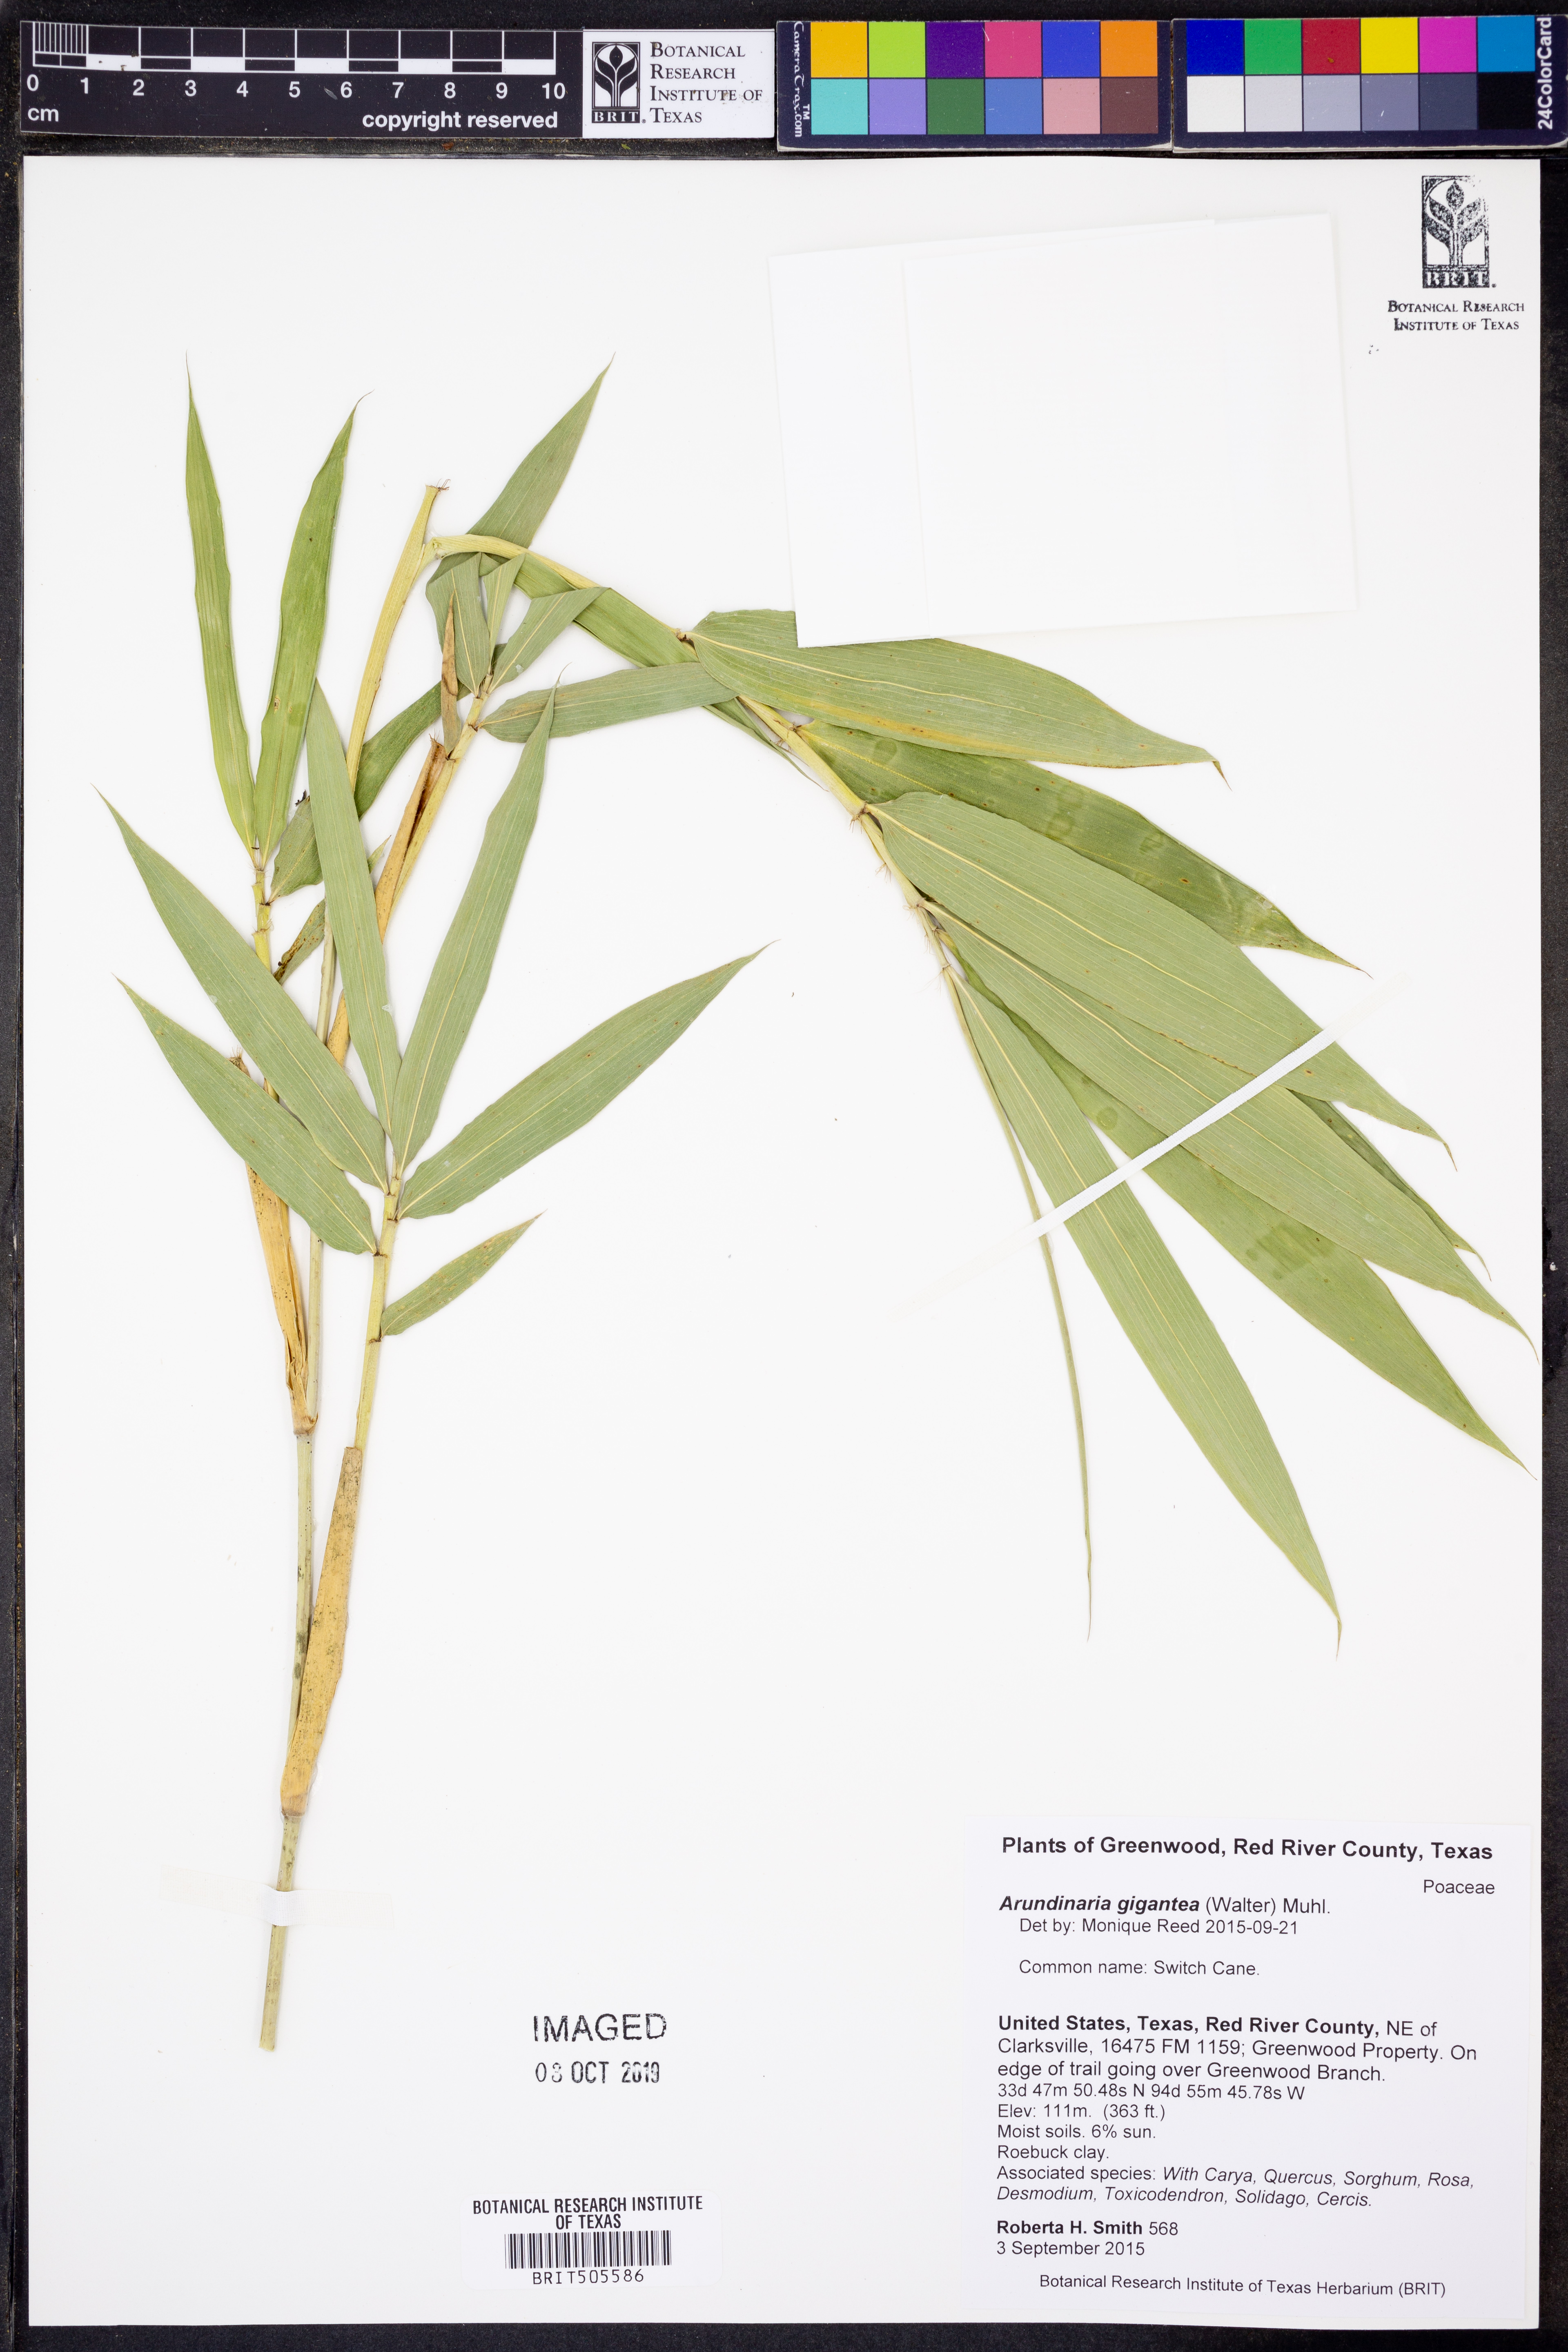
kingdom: Plantae
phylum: Tracheophyta
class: Liliopsida
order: Poales
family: Poaceae
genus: Arundinaria
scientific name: Arundinaria gigantea
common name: Giant cane
